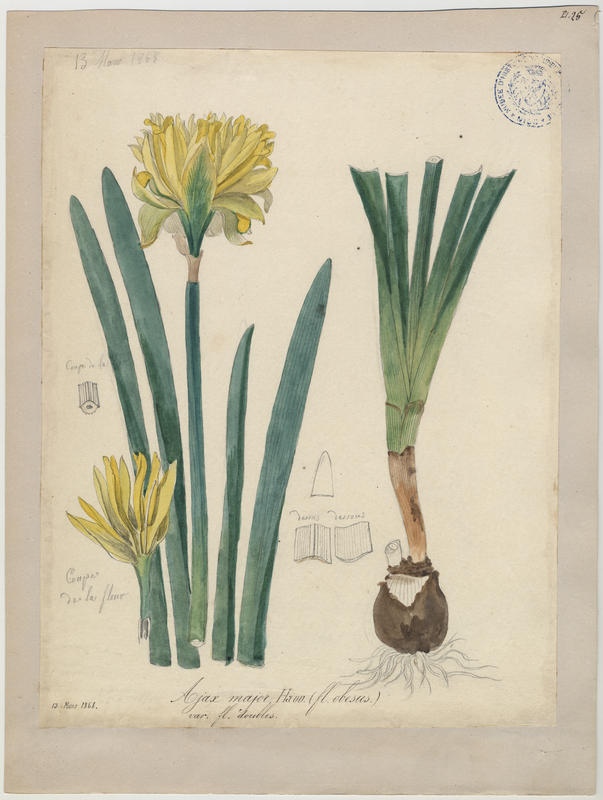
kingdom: Plantae
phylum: Tracheophyta
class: Liliopsida
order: Asparagales
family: Amaryllidaceae
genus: Narcissus
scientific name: Narcissus hispanicus
